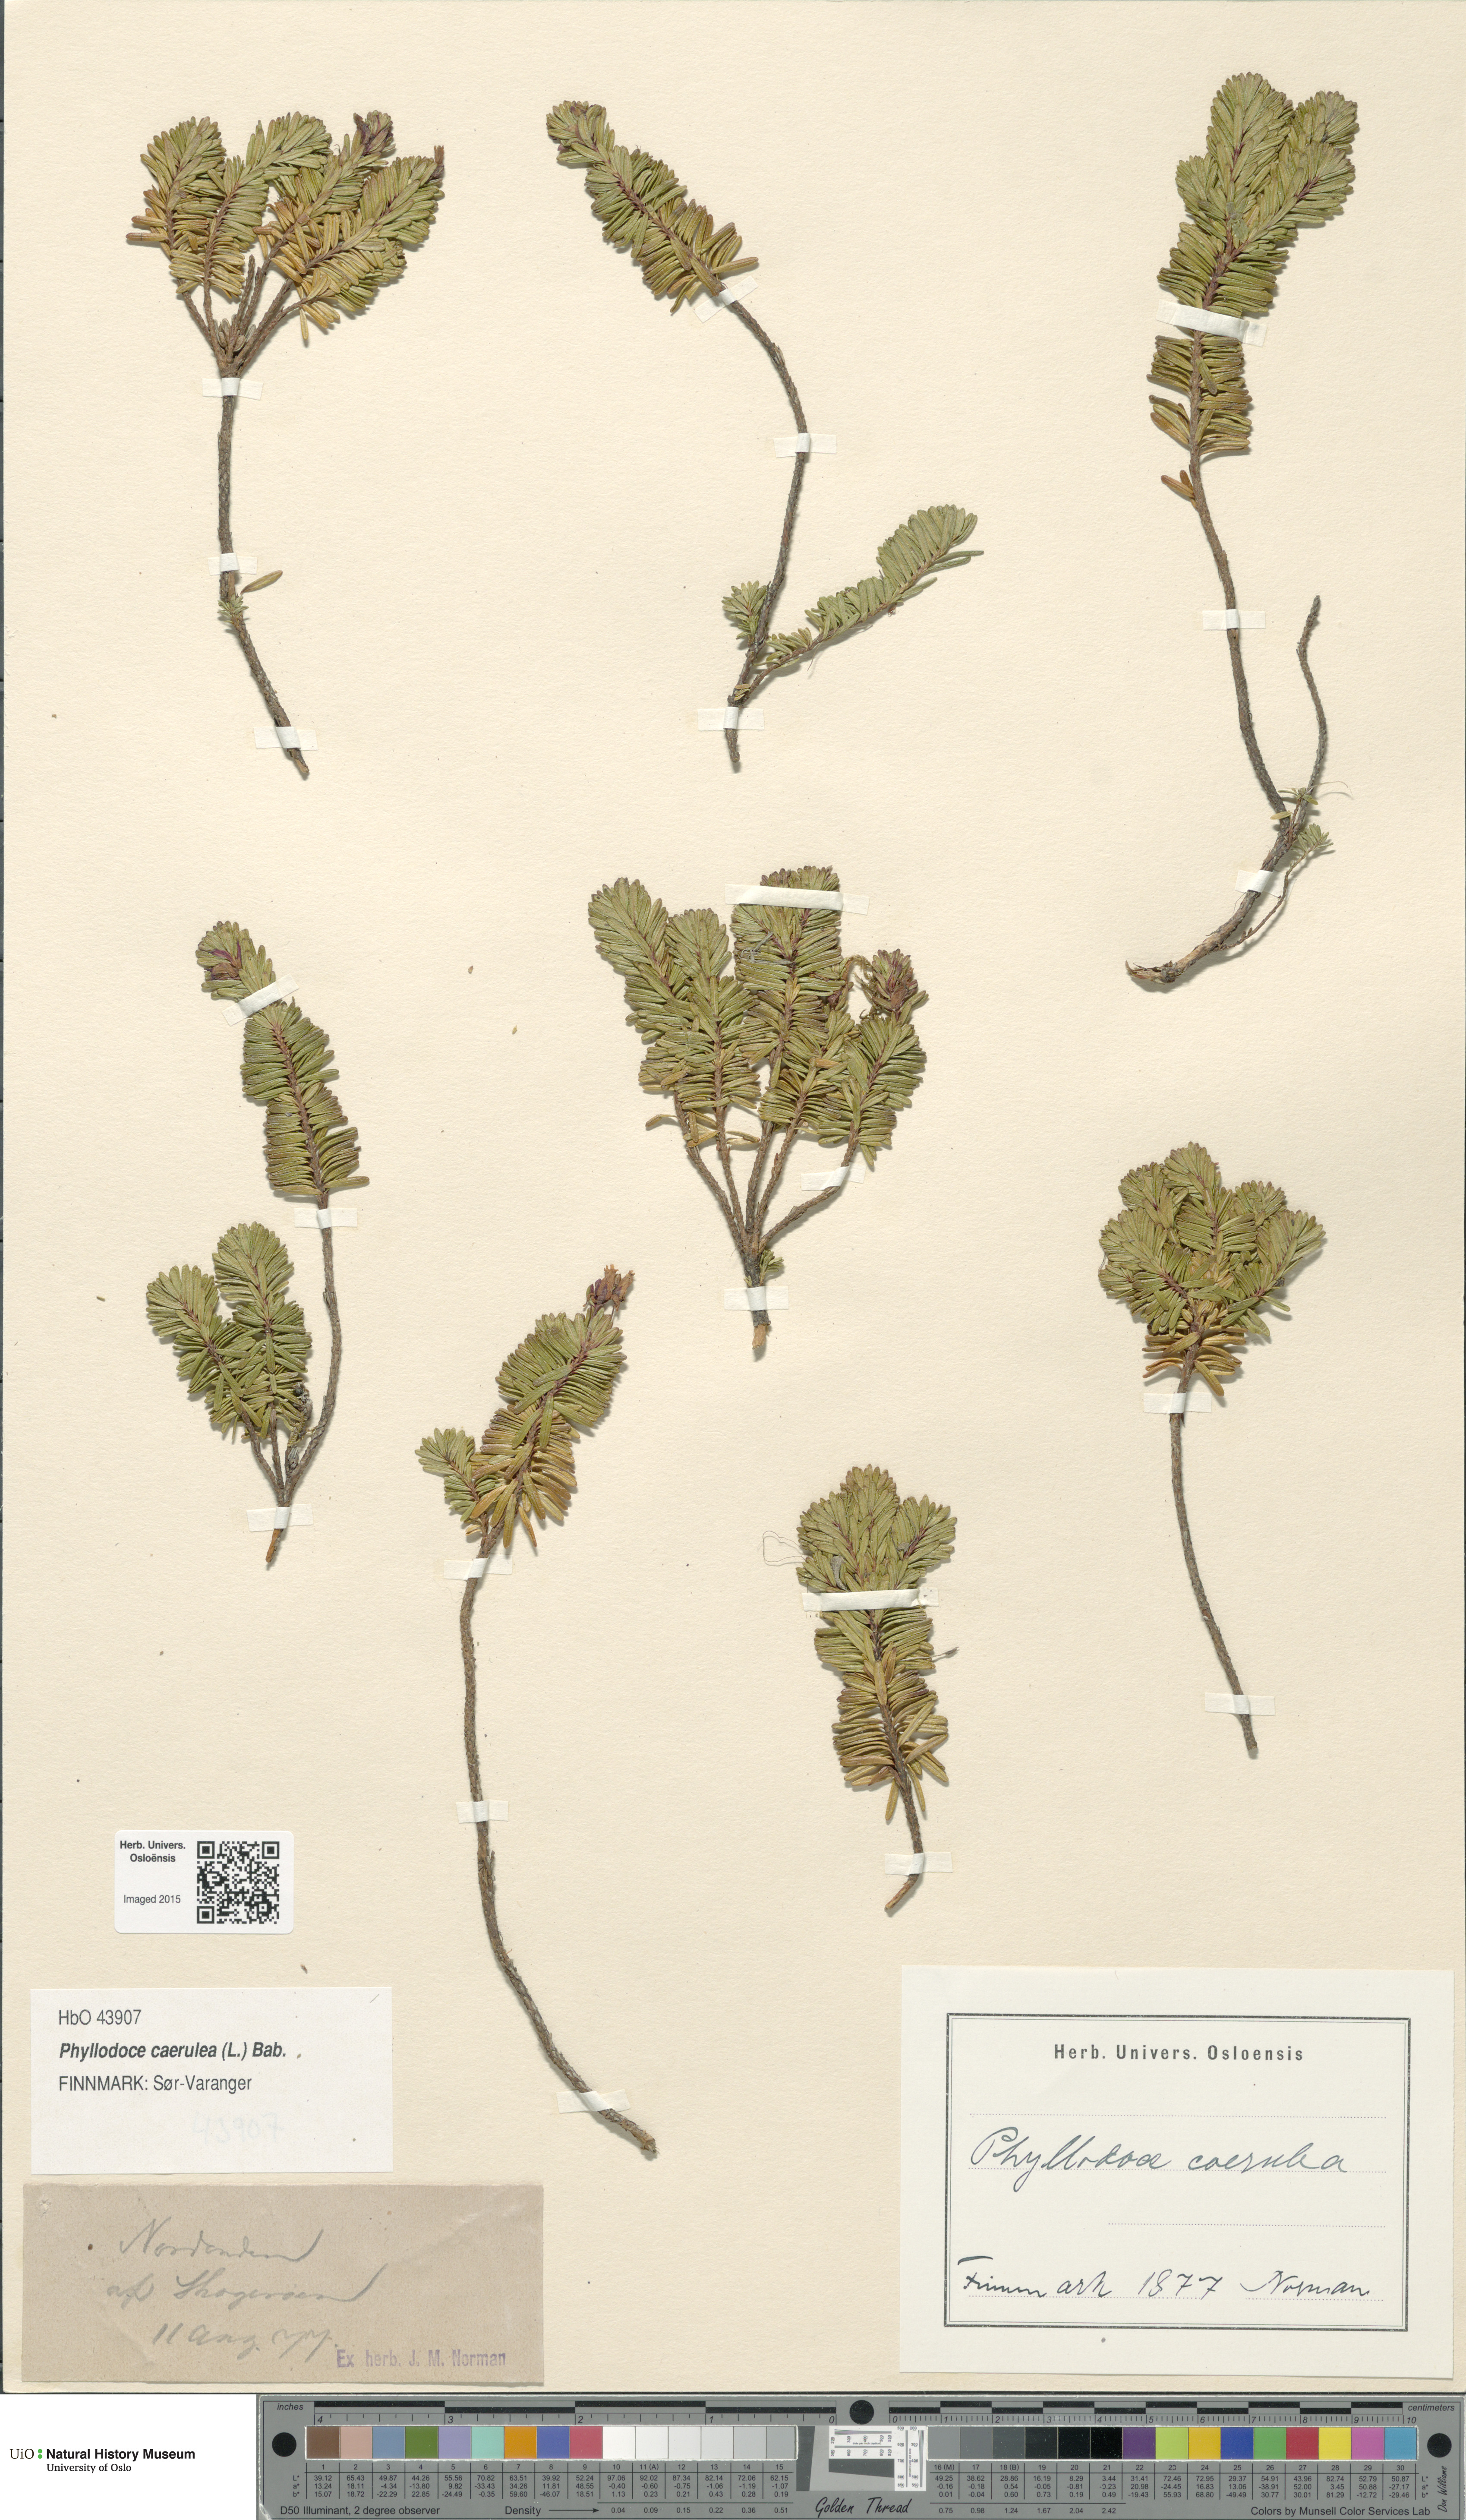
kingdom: Plantae
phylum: Tracheophyta
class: Magnoliopsida
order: Ericales
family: Ericaceae
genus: Phyllodoce
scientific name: Phyllodoce caerulea
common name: Blue heath
